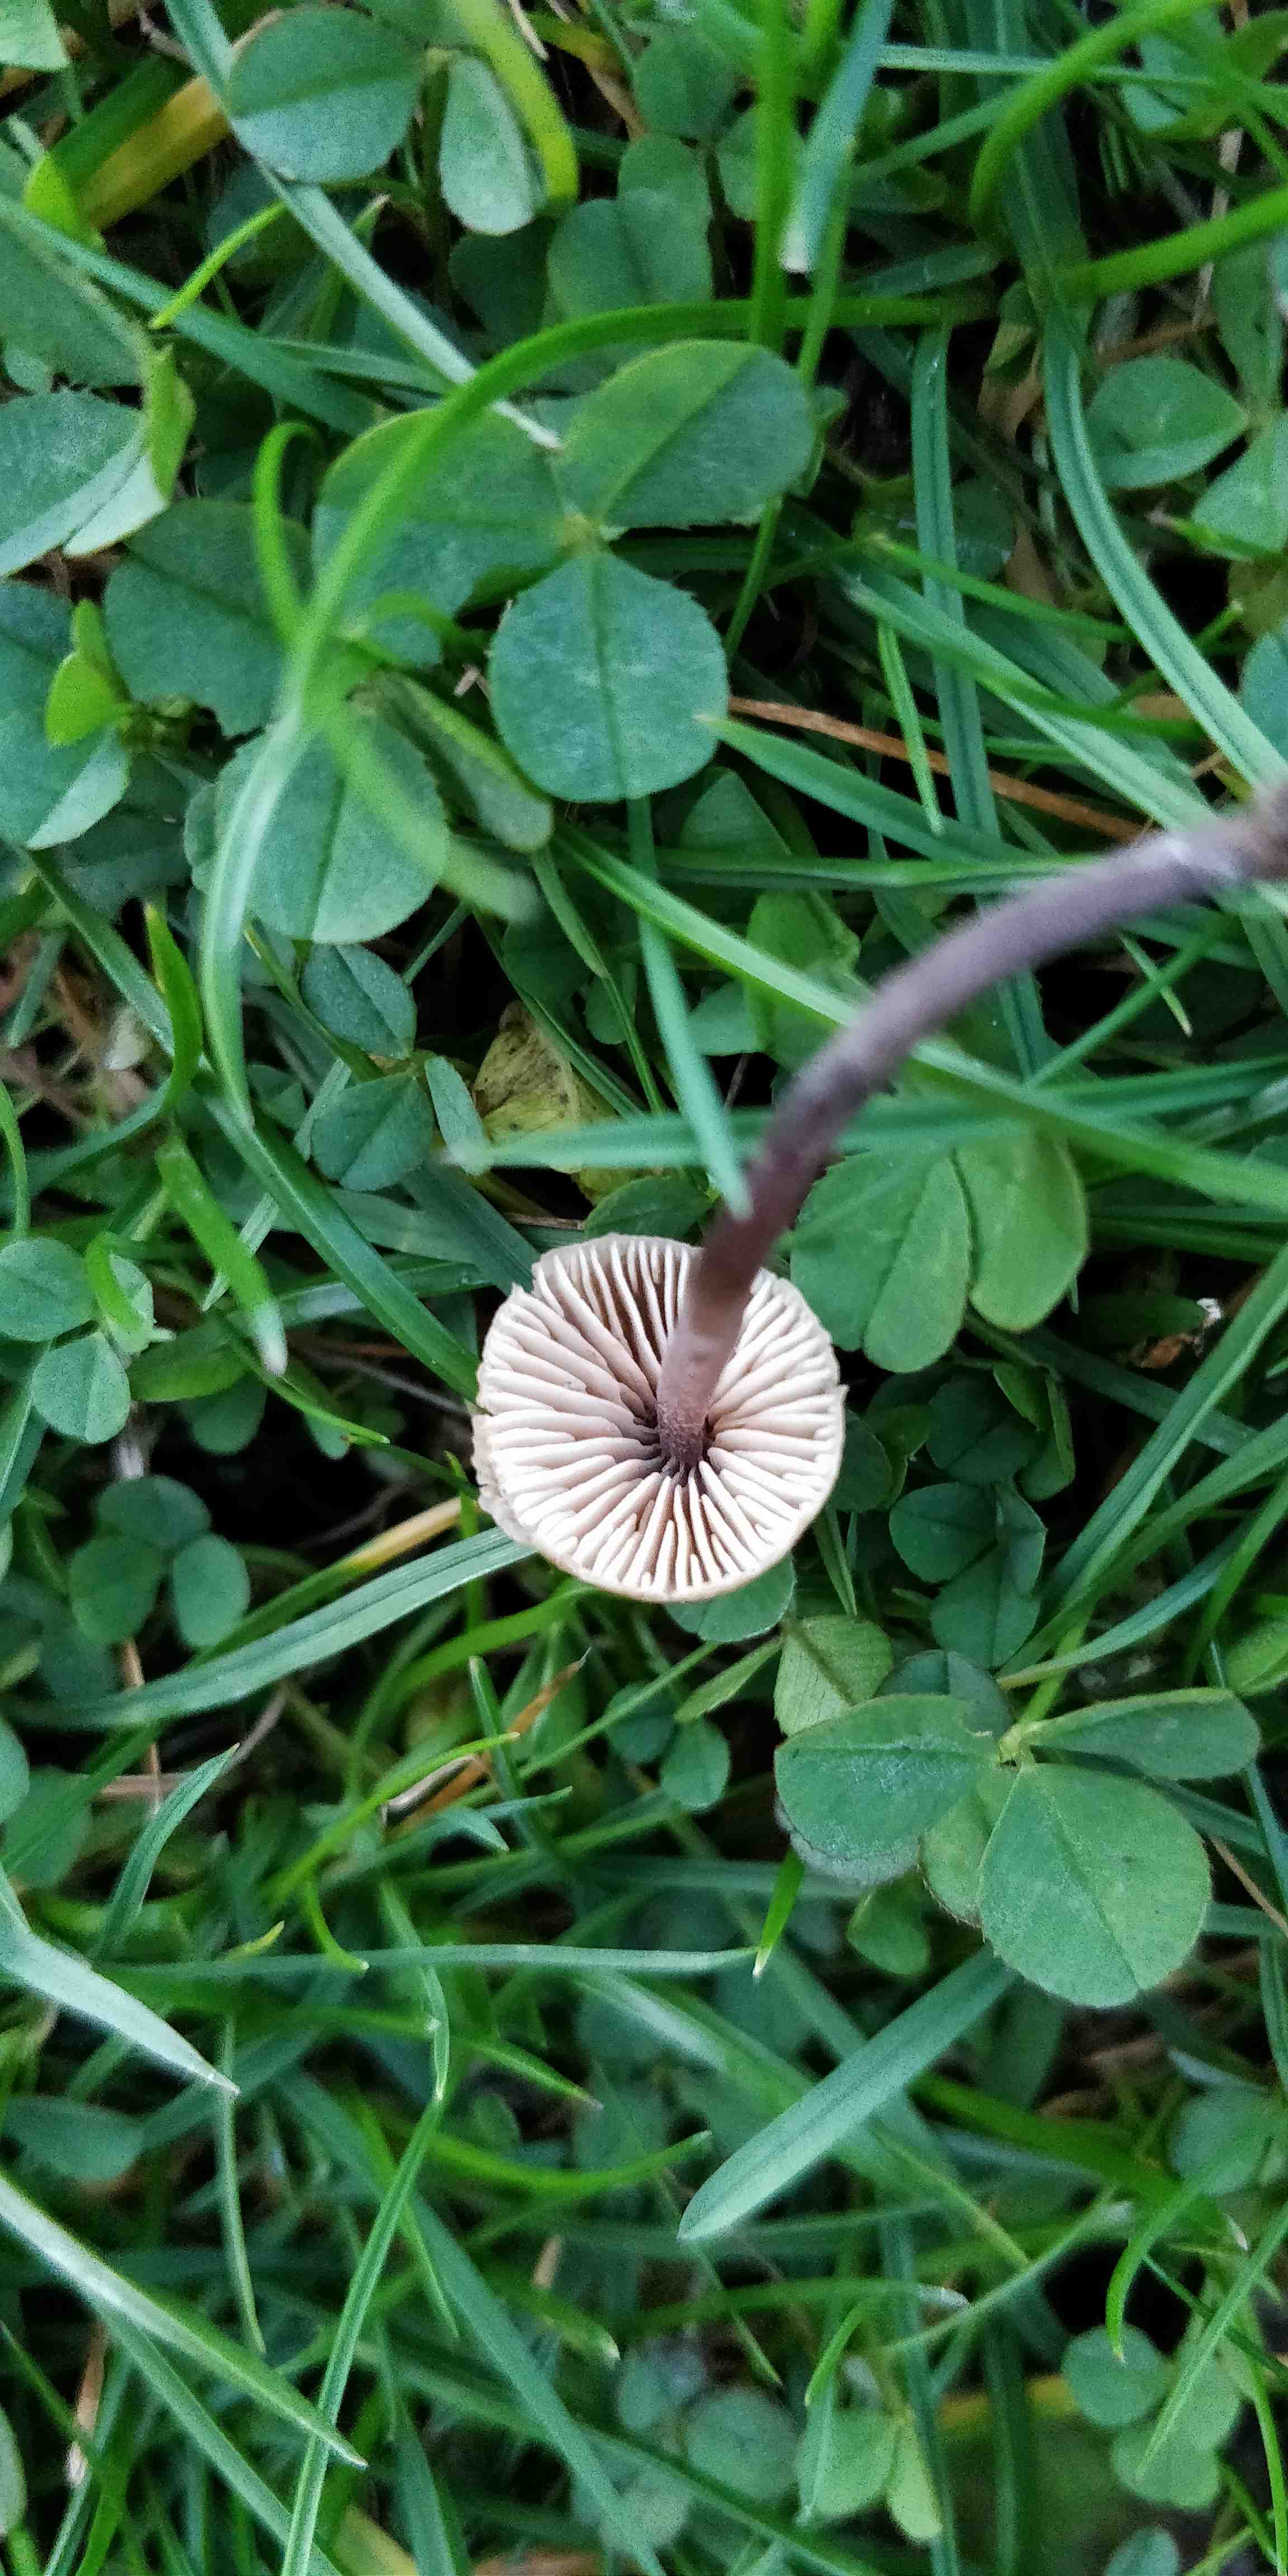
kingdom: Fungi
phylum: Basidiomycota
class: Agaricomycetes
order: Agaricales
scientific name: Agaricales
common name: champignonordenen
